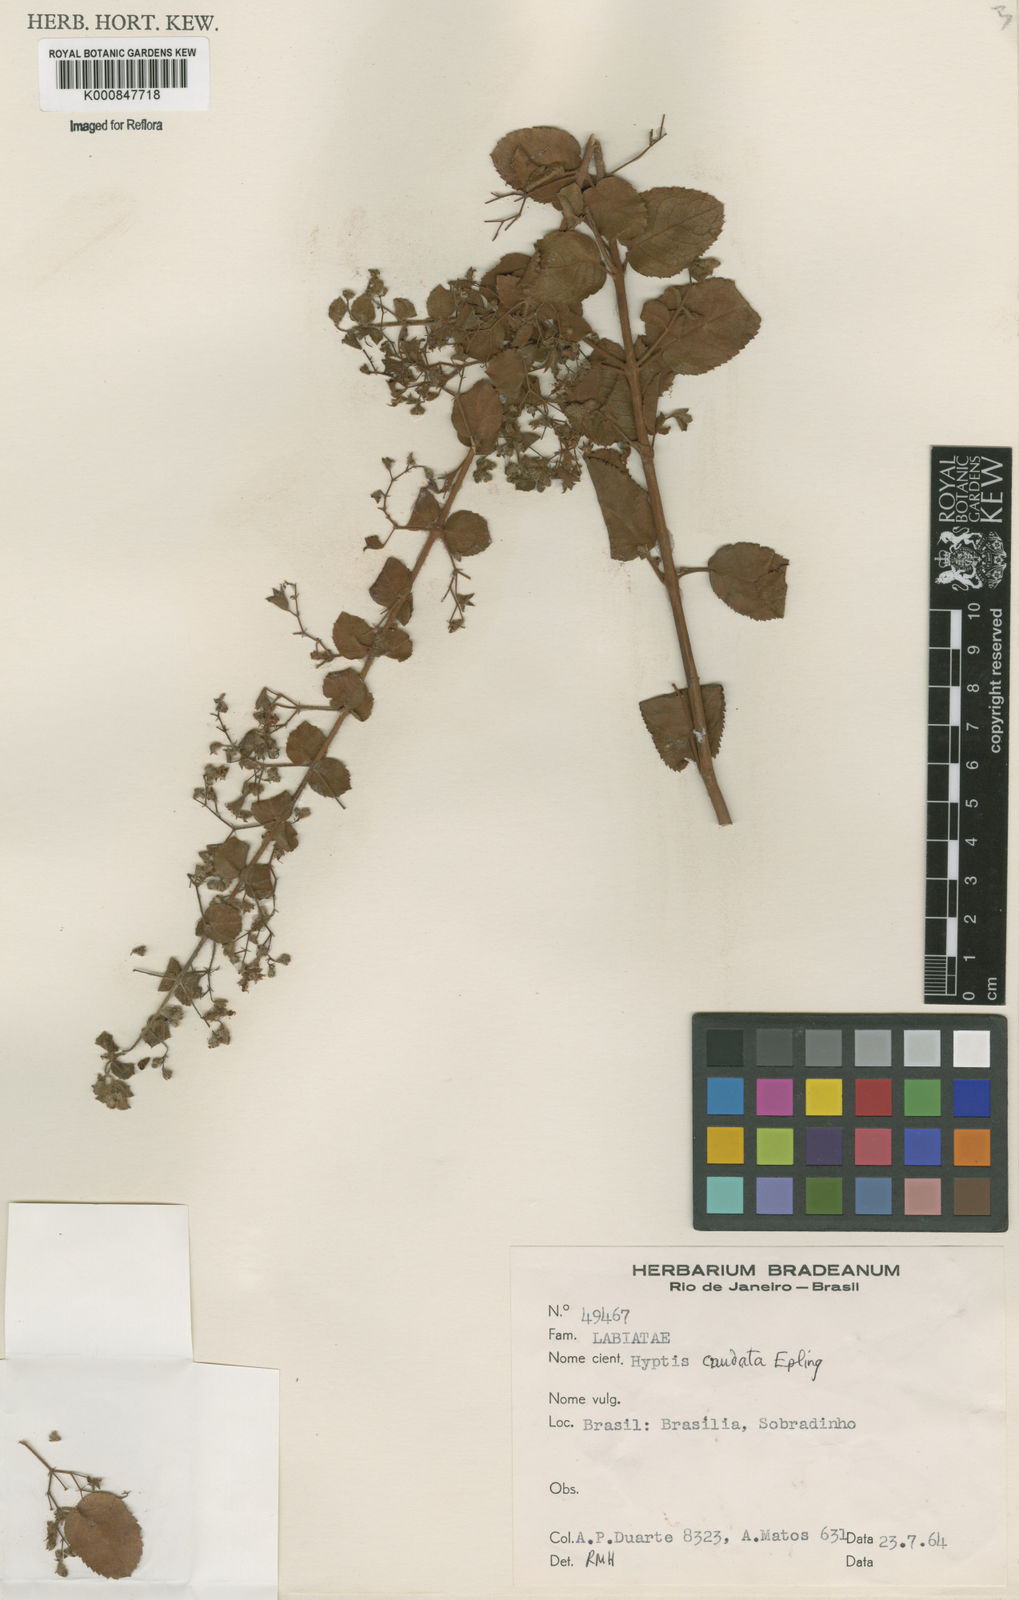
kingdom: Plantae
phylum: Tracheophyta
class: Magnoliopsida
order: Lamiales
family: Lamiaceae
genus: Hyptidendron
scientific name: Hyptidendron
